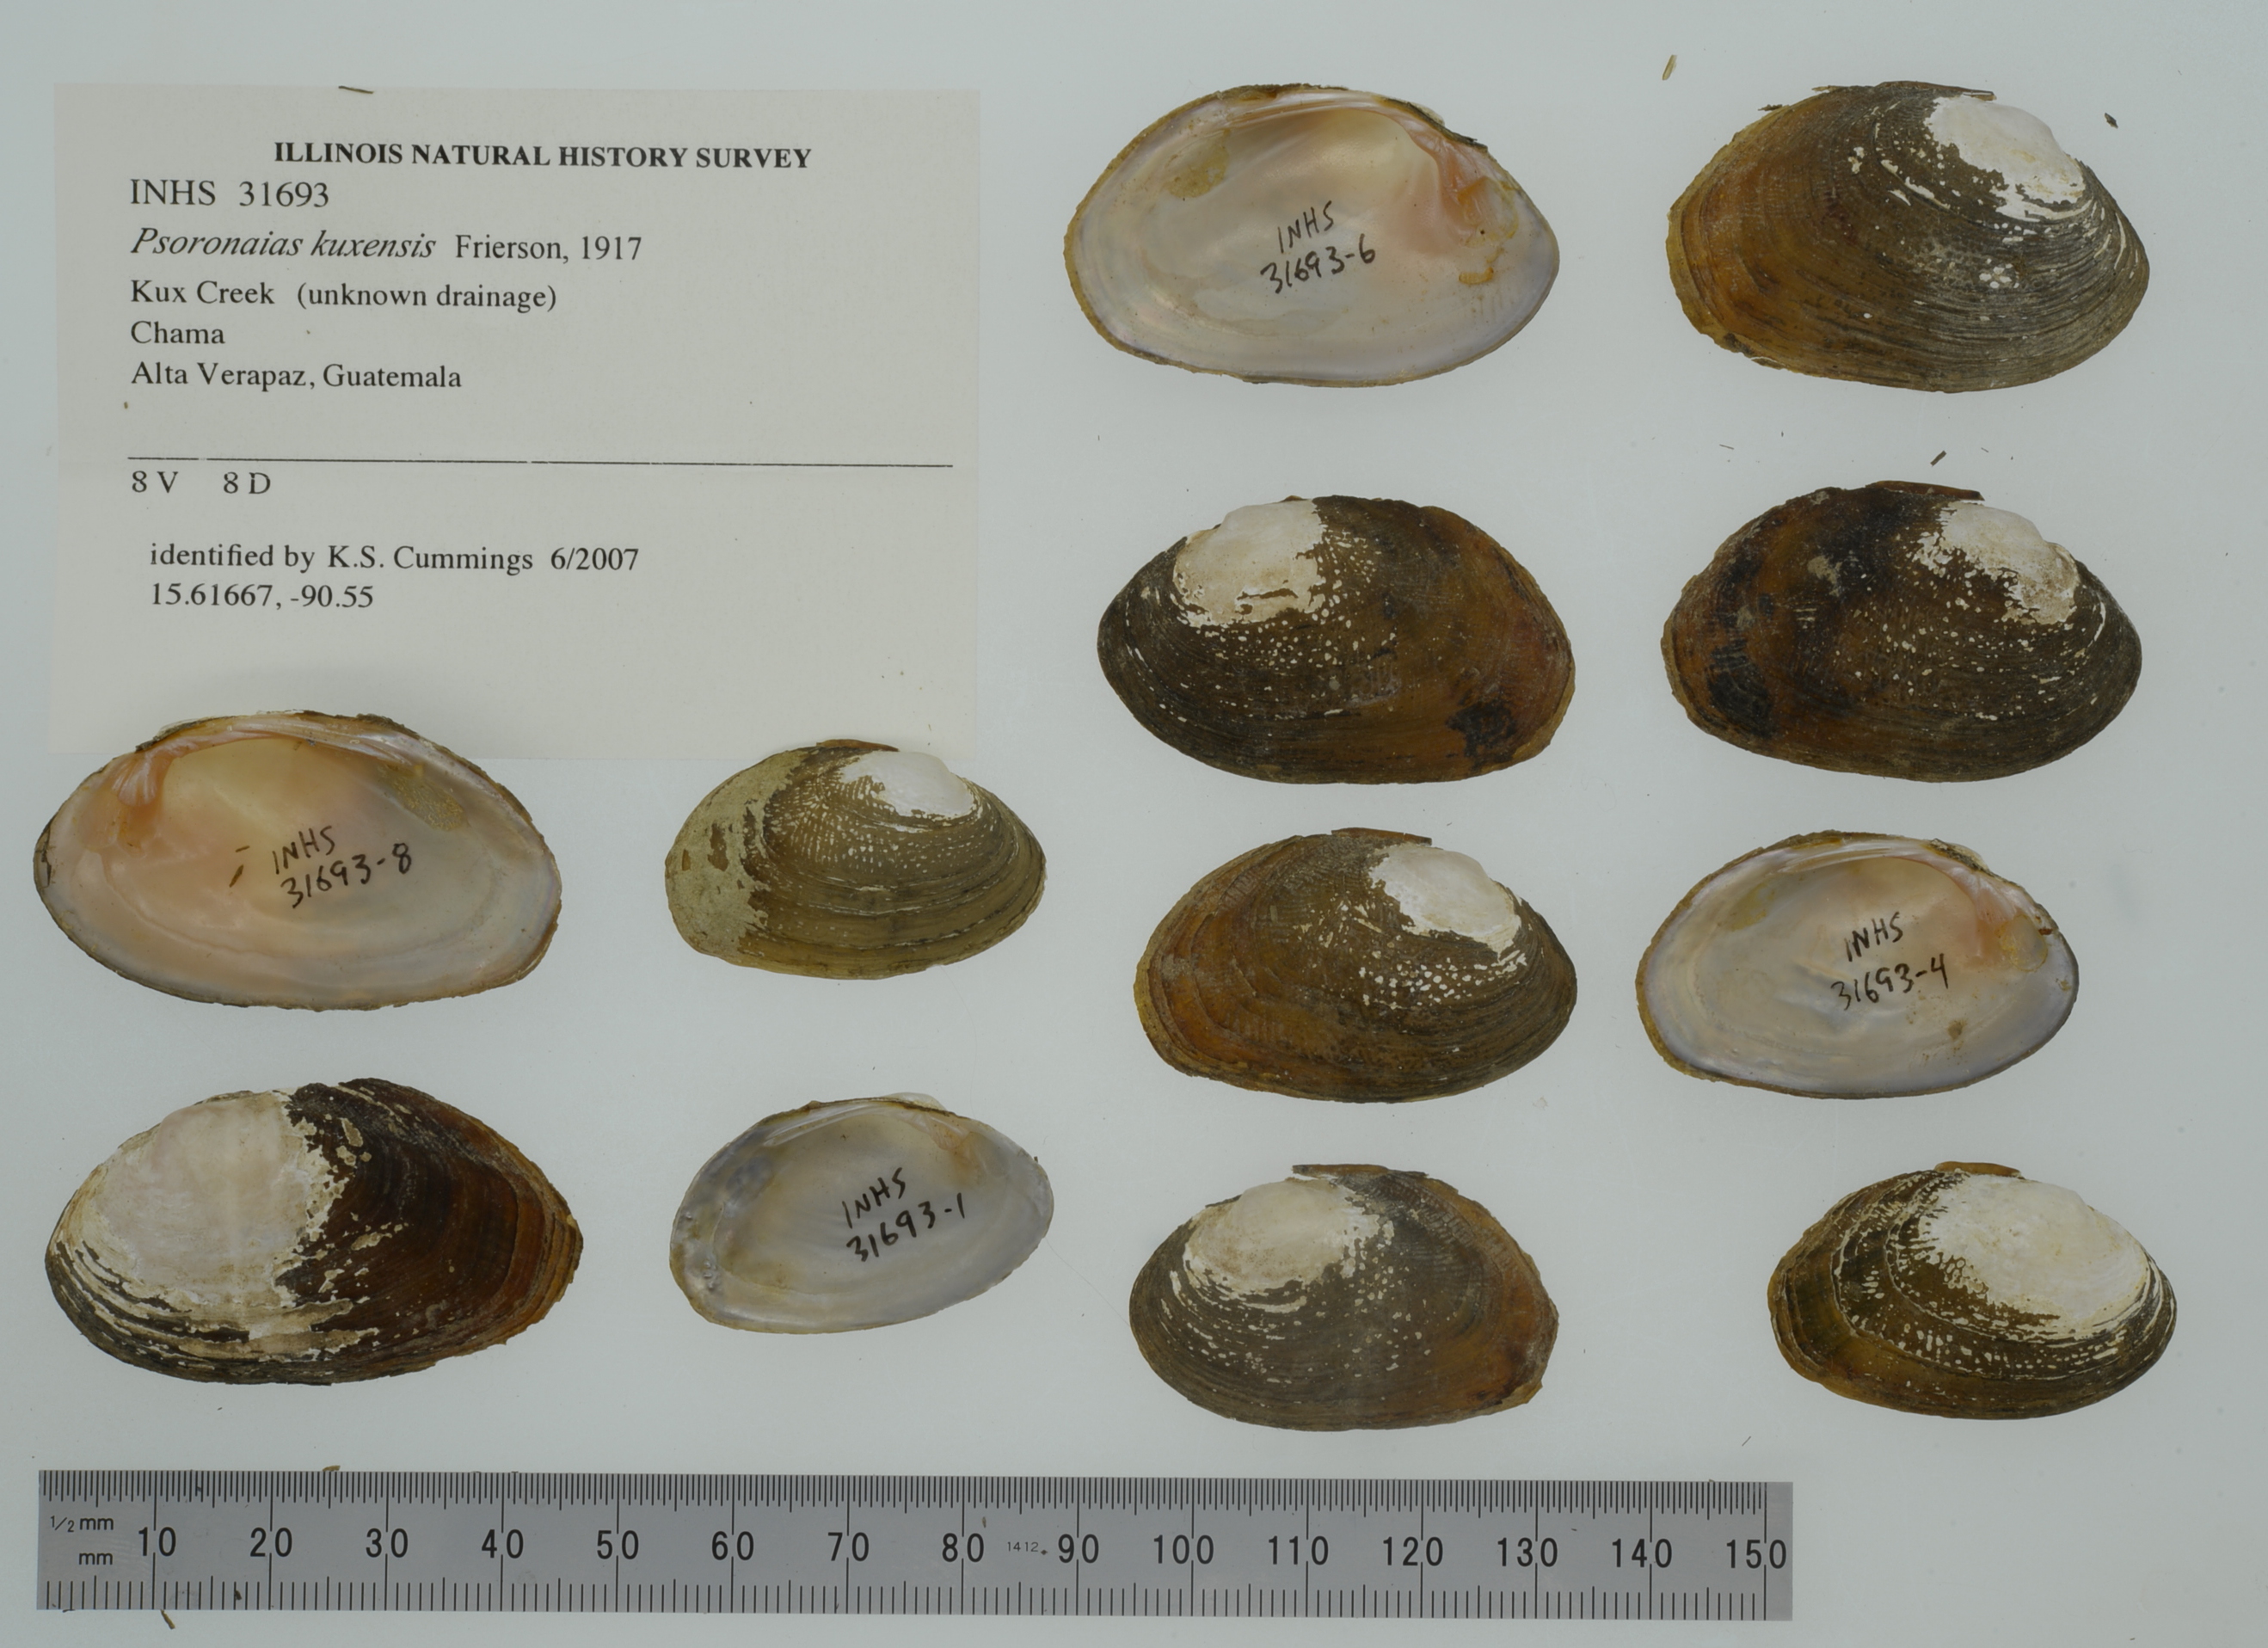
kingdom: Animalia
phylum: Mollusca
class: Bivalvia
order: Unionida
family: Unionidae
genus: Psoronaias
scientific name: Psoronaias kuxensis
